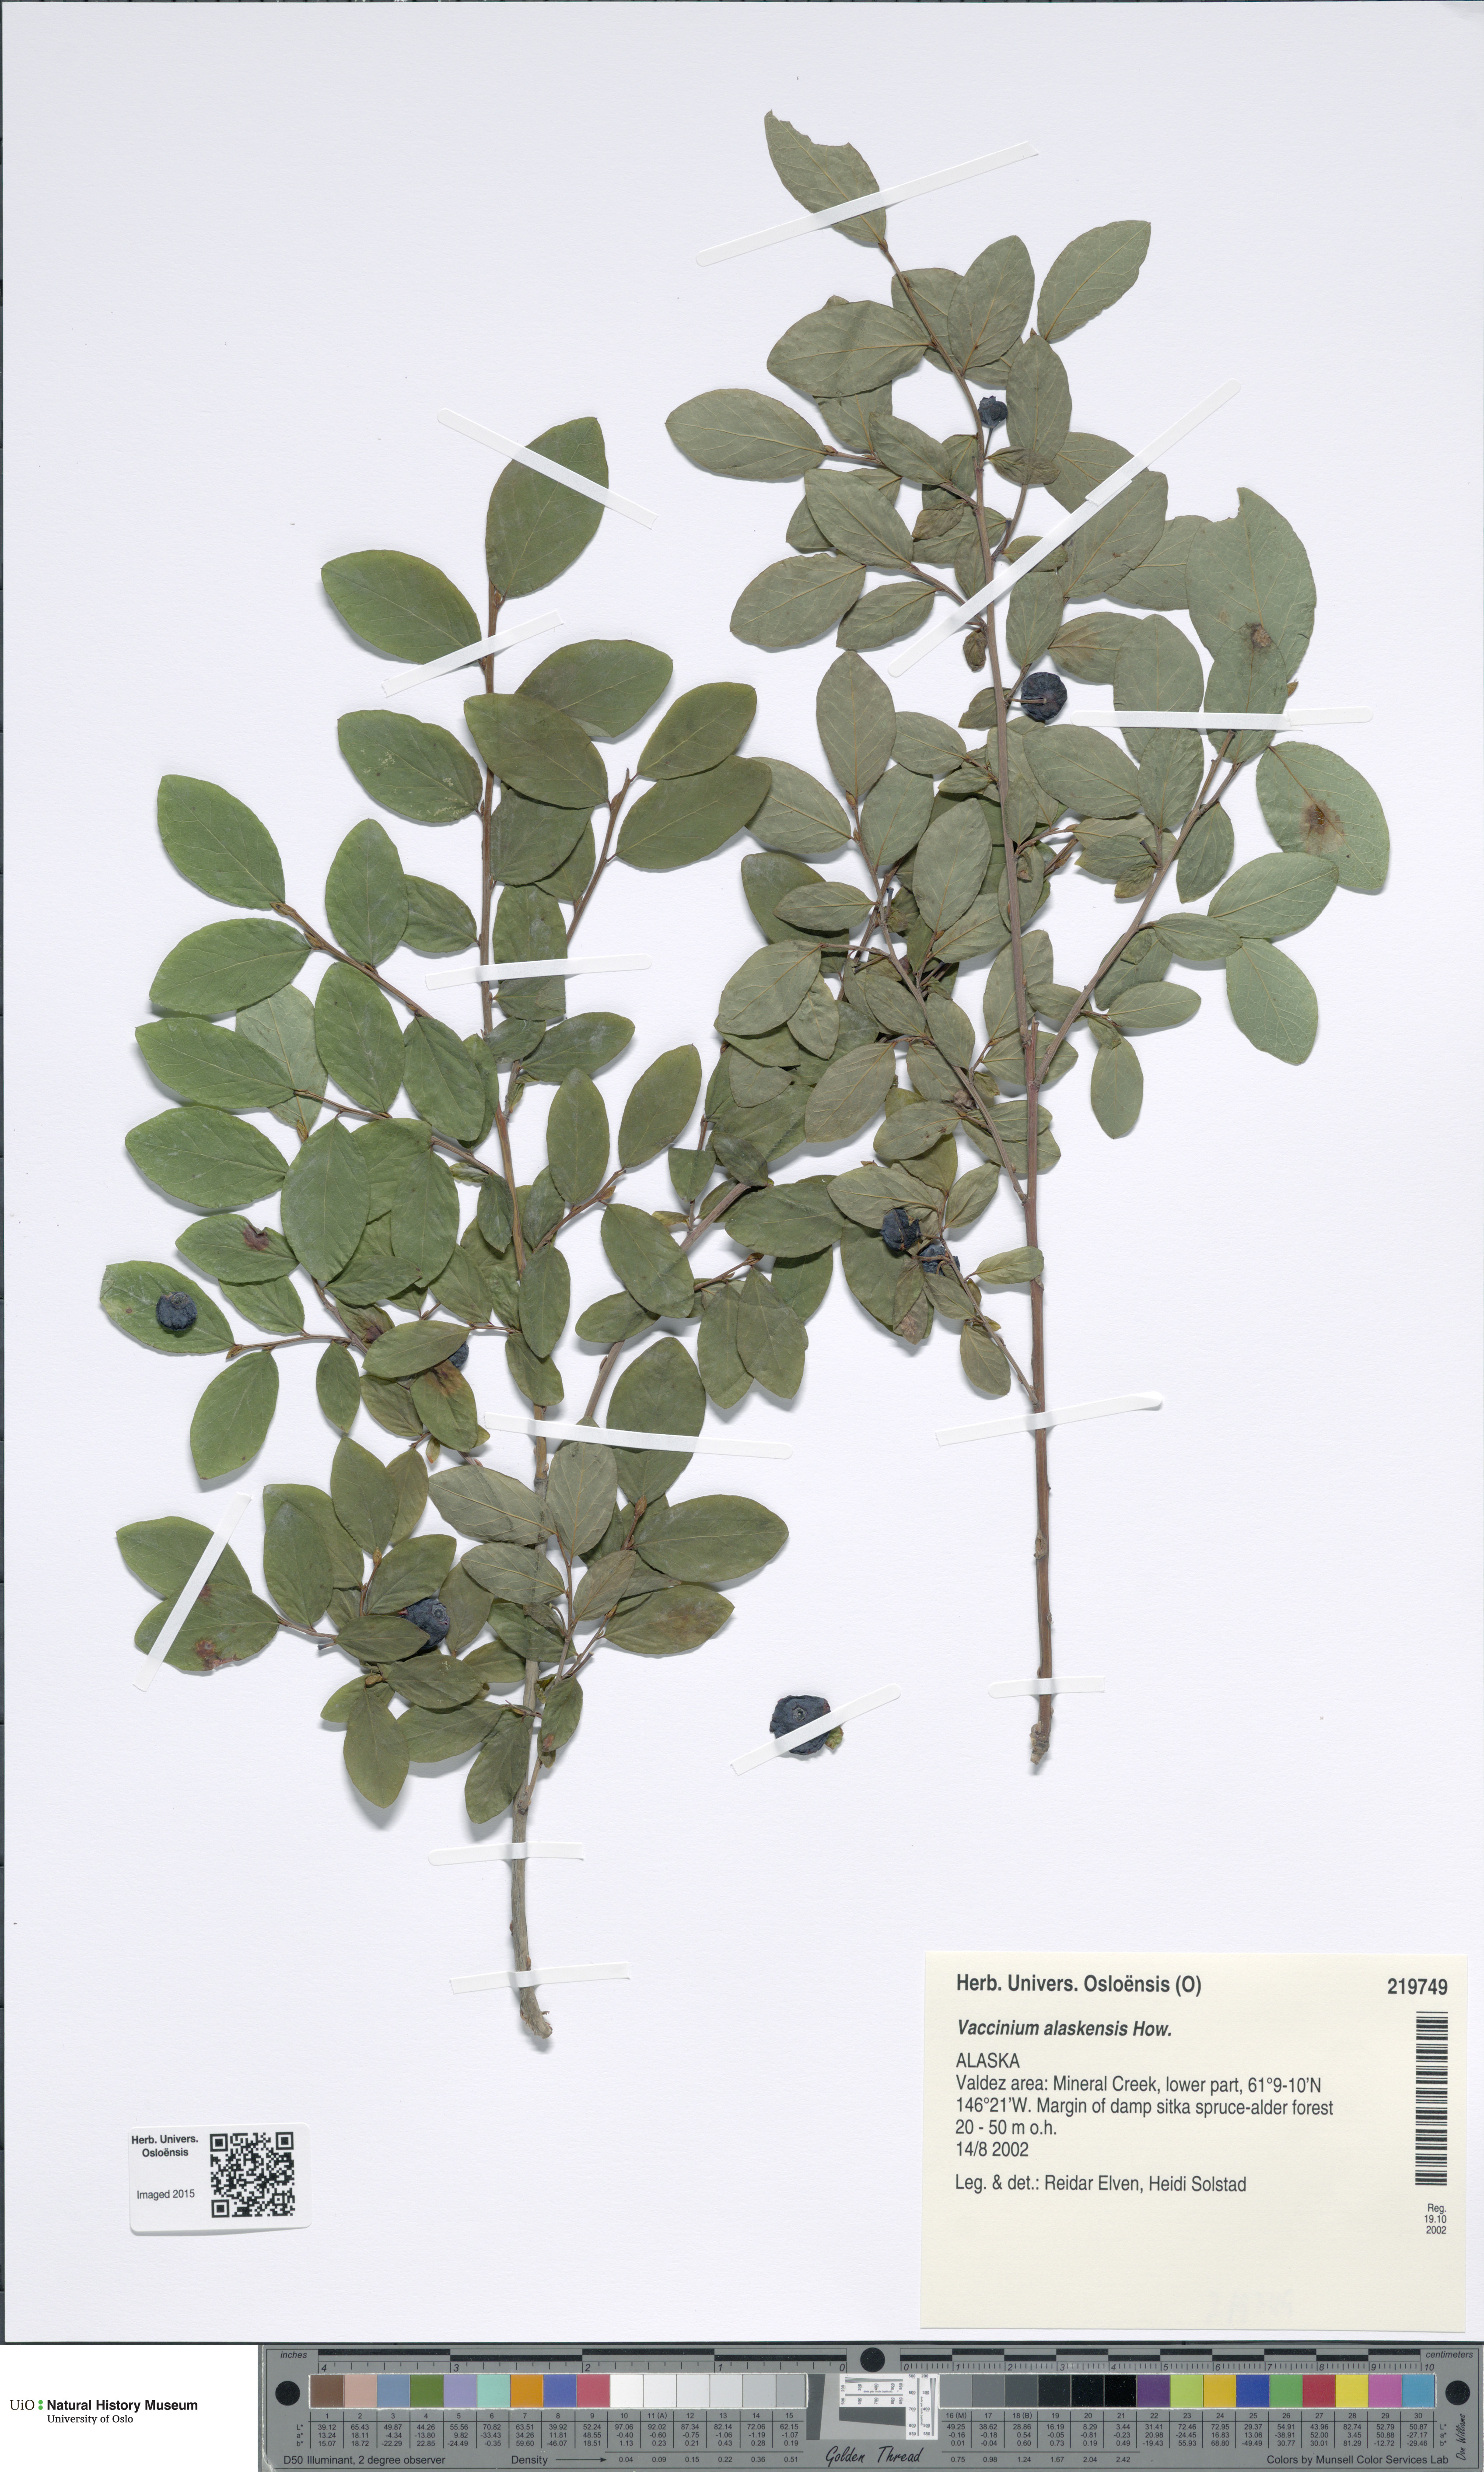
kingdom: Plantae
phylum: Tracheophyta
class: Magnoliopsida
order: Ericales
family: Ericaceae
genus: Vaccinium
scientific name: Vaccinium alaskensis
